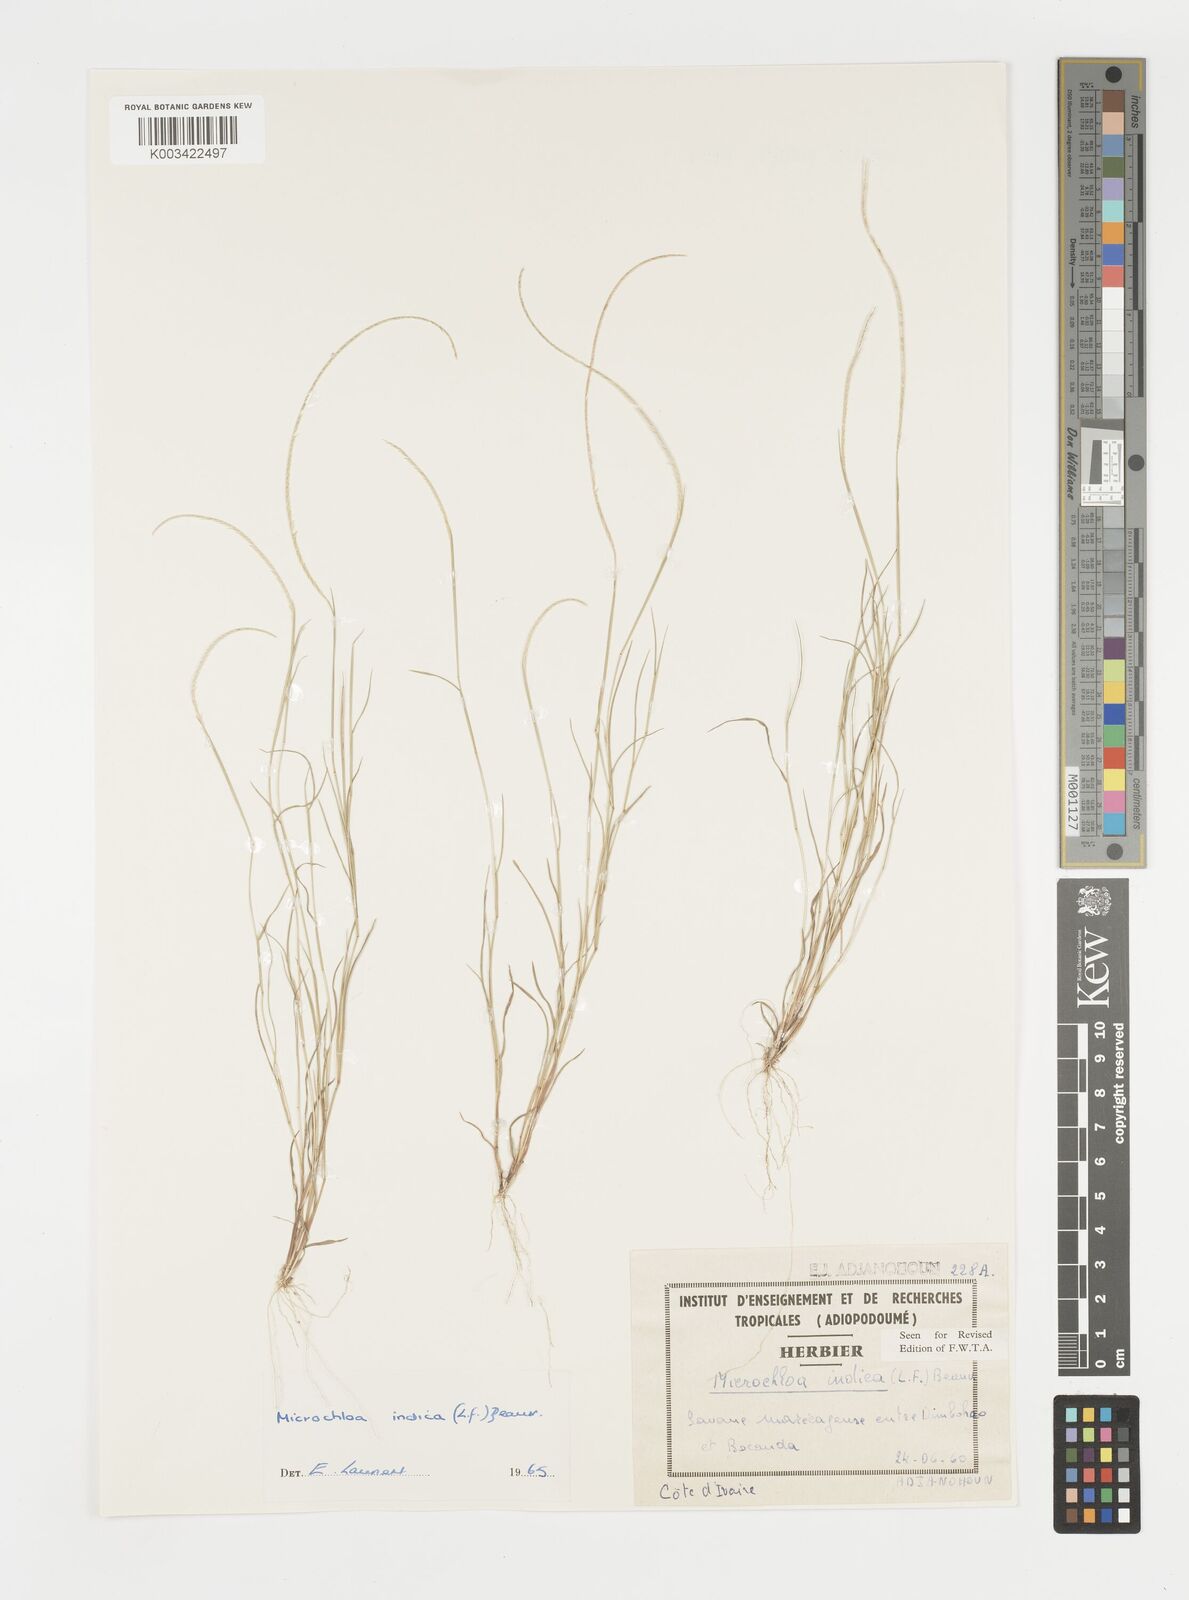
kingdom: Plantae
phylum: Tracheophyta
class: Liliopsida
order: Poales
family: Poaceae
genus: Microchloa
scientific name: Microchloa indica
